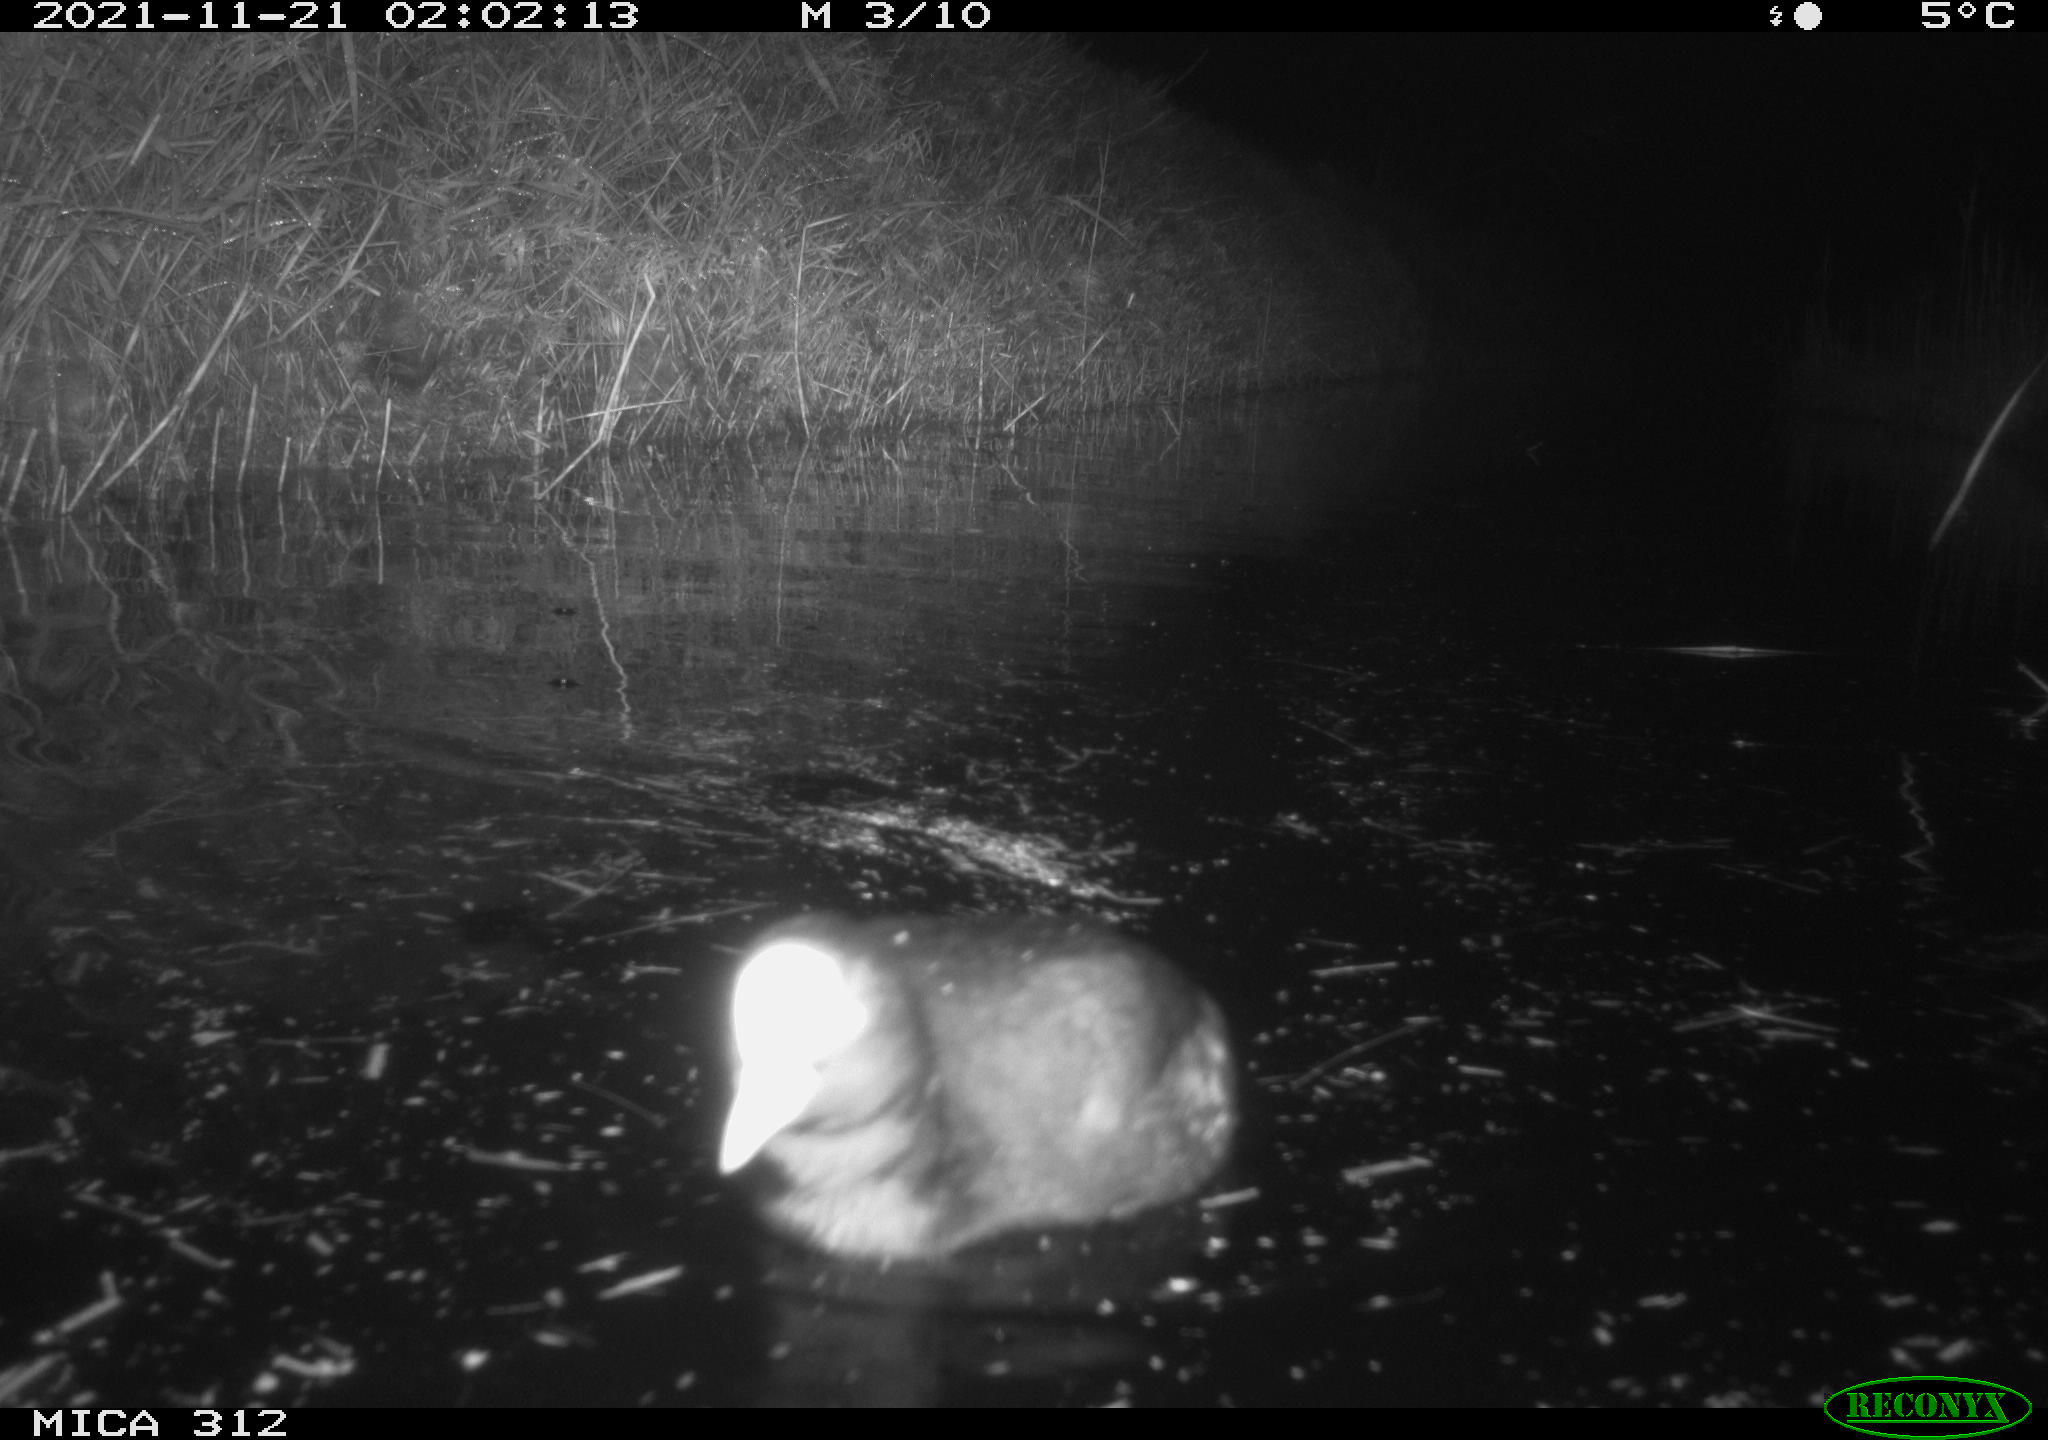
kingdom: Animalia
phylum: Chordata
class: Aves
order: Gruiformes
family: Rallidae
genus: Fulica
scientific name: Fulica atra
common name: Eurasian coot
